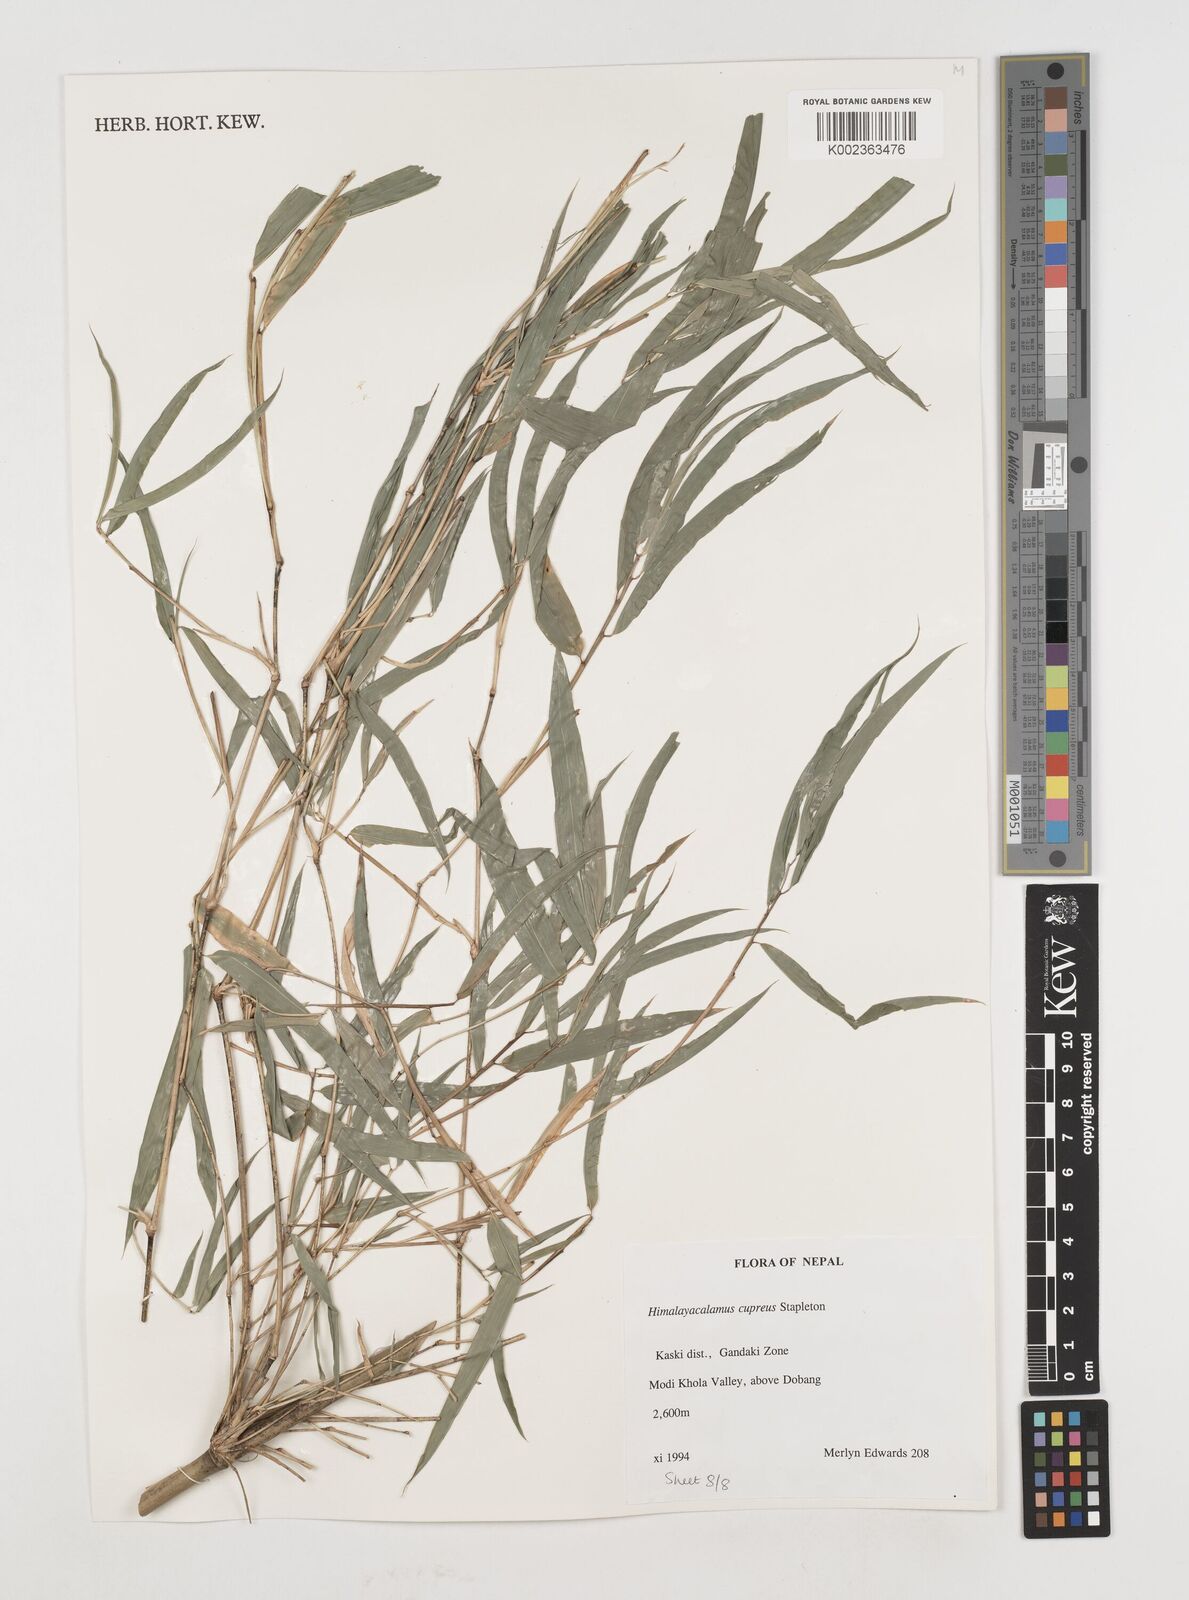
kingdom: Plantae
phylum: Tracheophyta
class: Liliopsida
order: Poales
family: Poaceae
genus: Himalayacalamus
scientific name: Himalayacalamus cupreus
